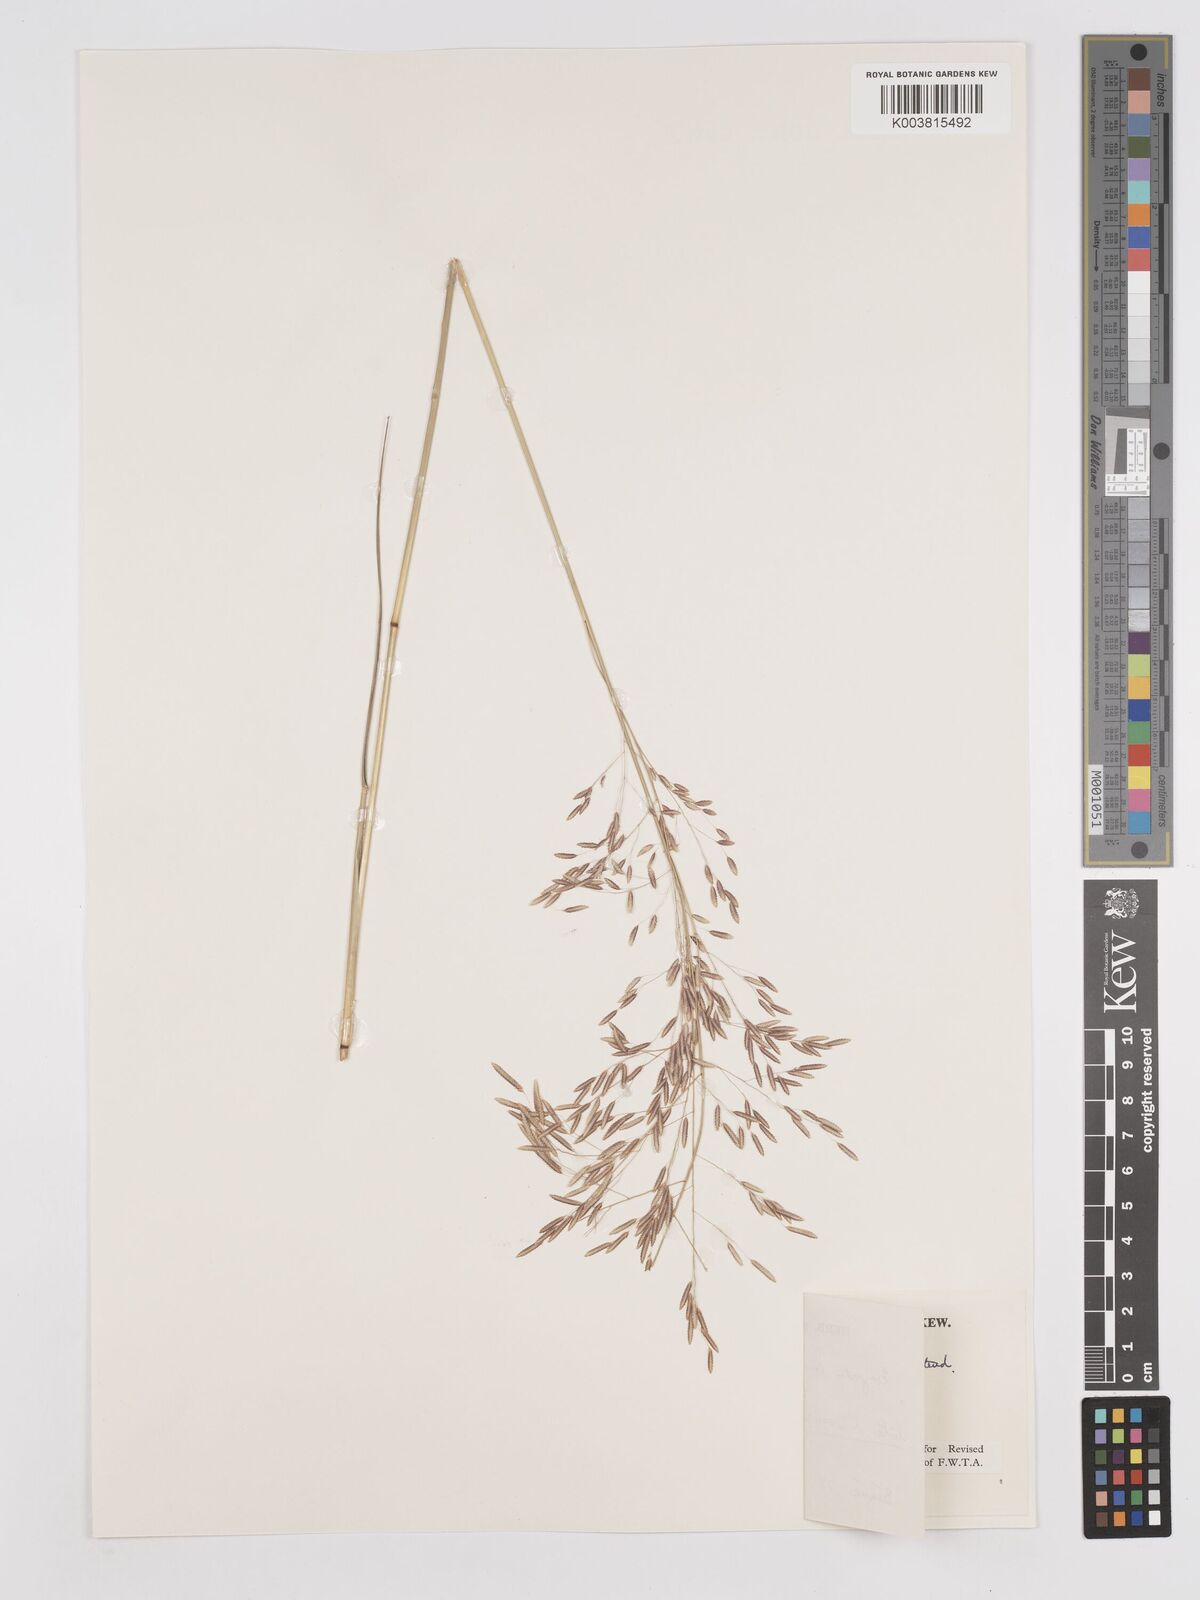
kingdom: Plantae
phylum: Tracheophyta
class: Liliopsida
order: Poales
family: Poaceae
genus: Eragrostis
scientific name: Eragrostis tremula
